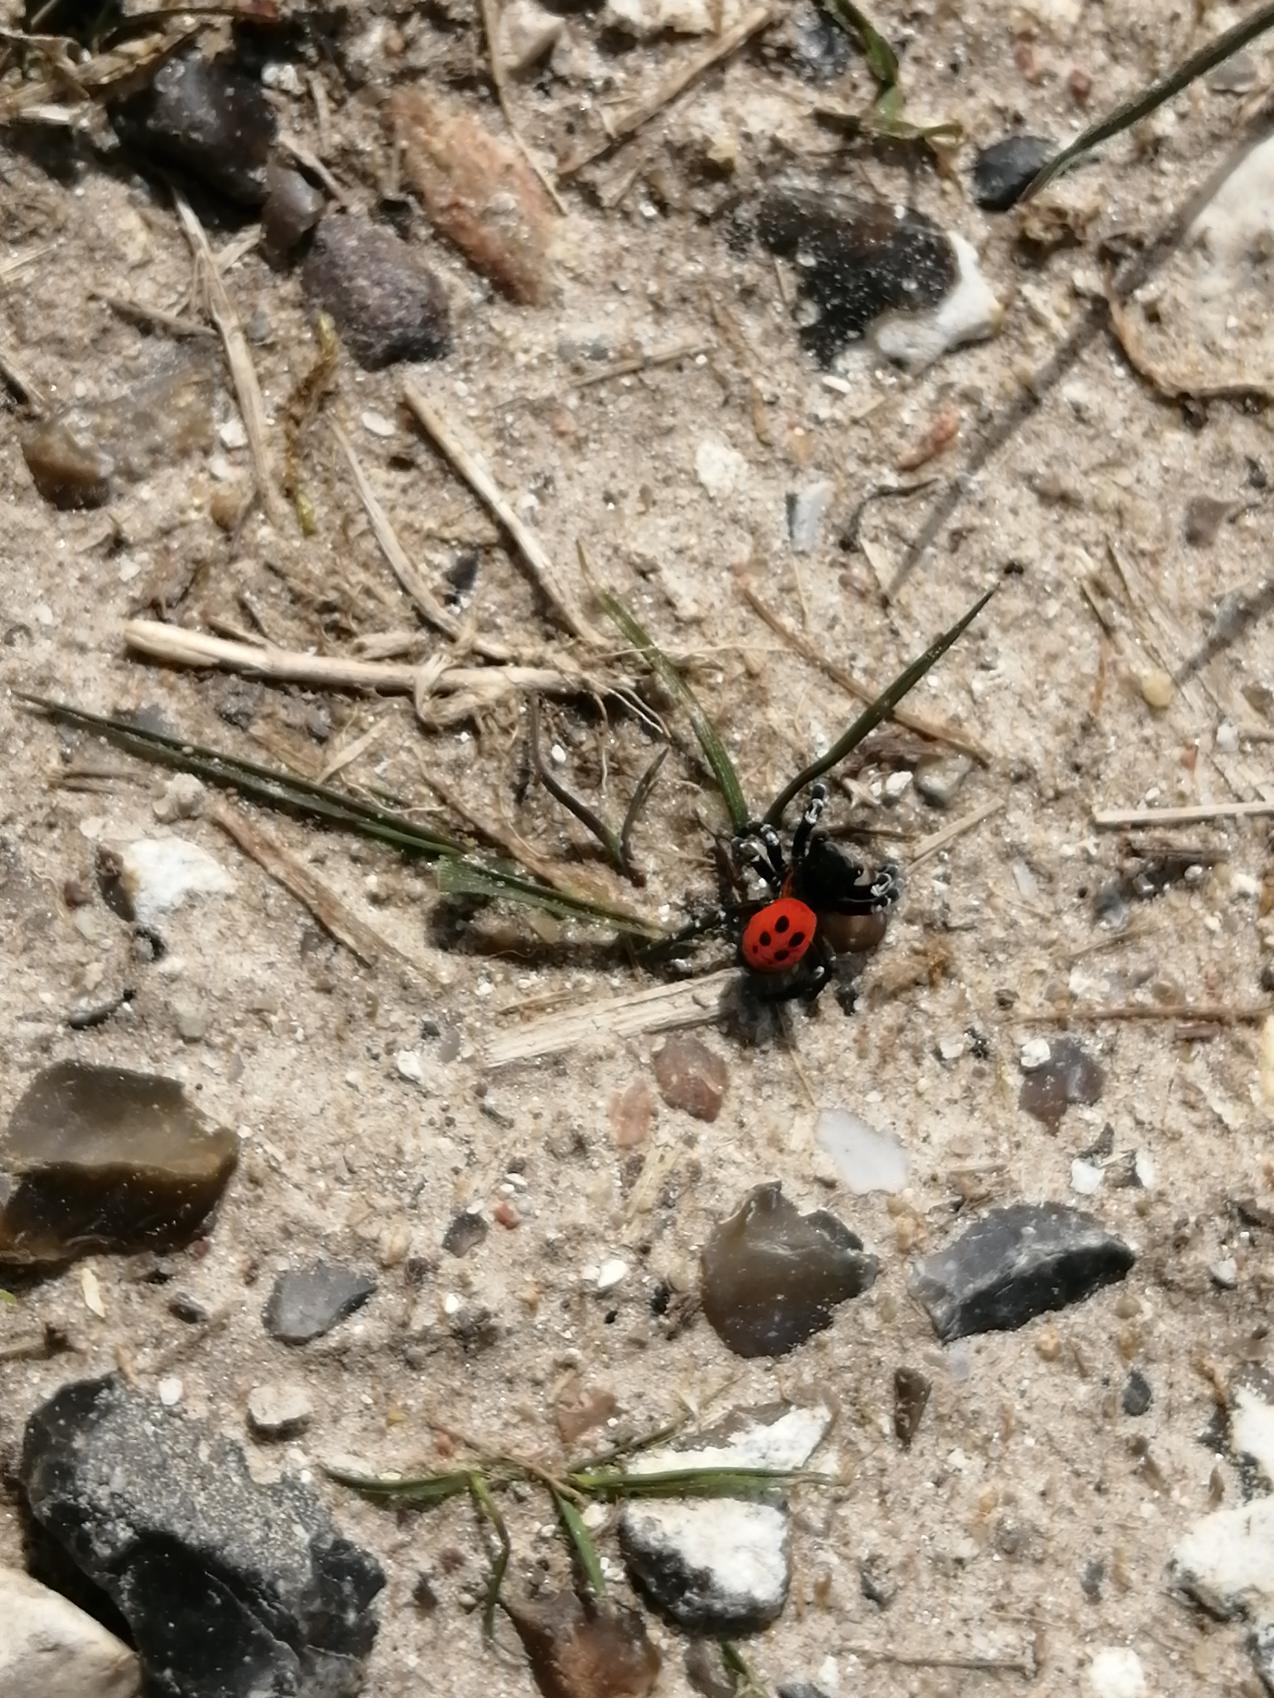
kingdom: Animalia
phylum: Arthropoda
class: Arachnida
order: Araneae
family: Eresidae
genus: Eresus
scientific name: Eresus sandaliatus
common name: Mariehøneedderkop
